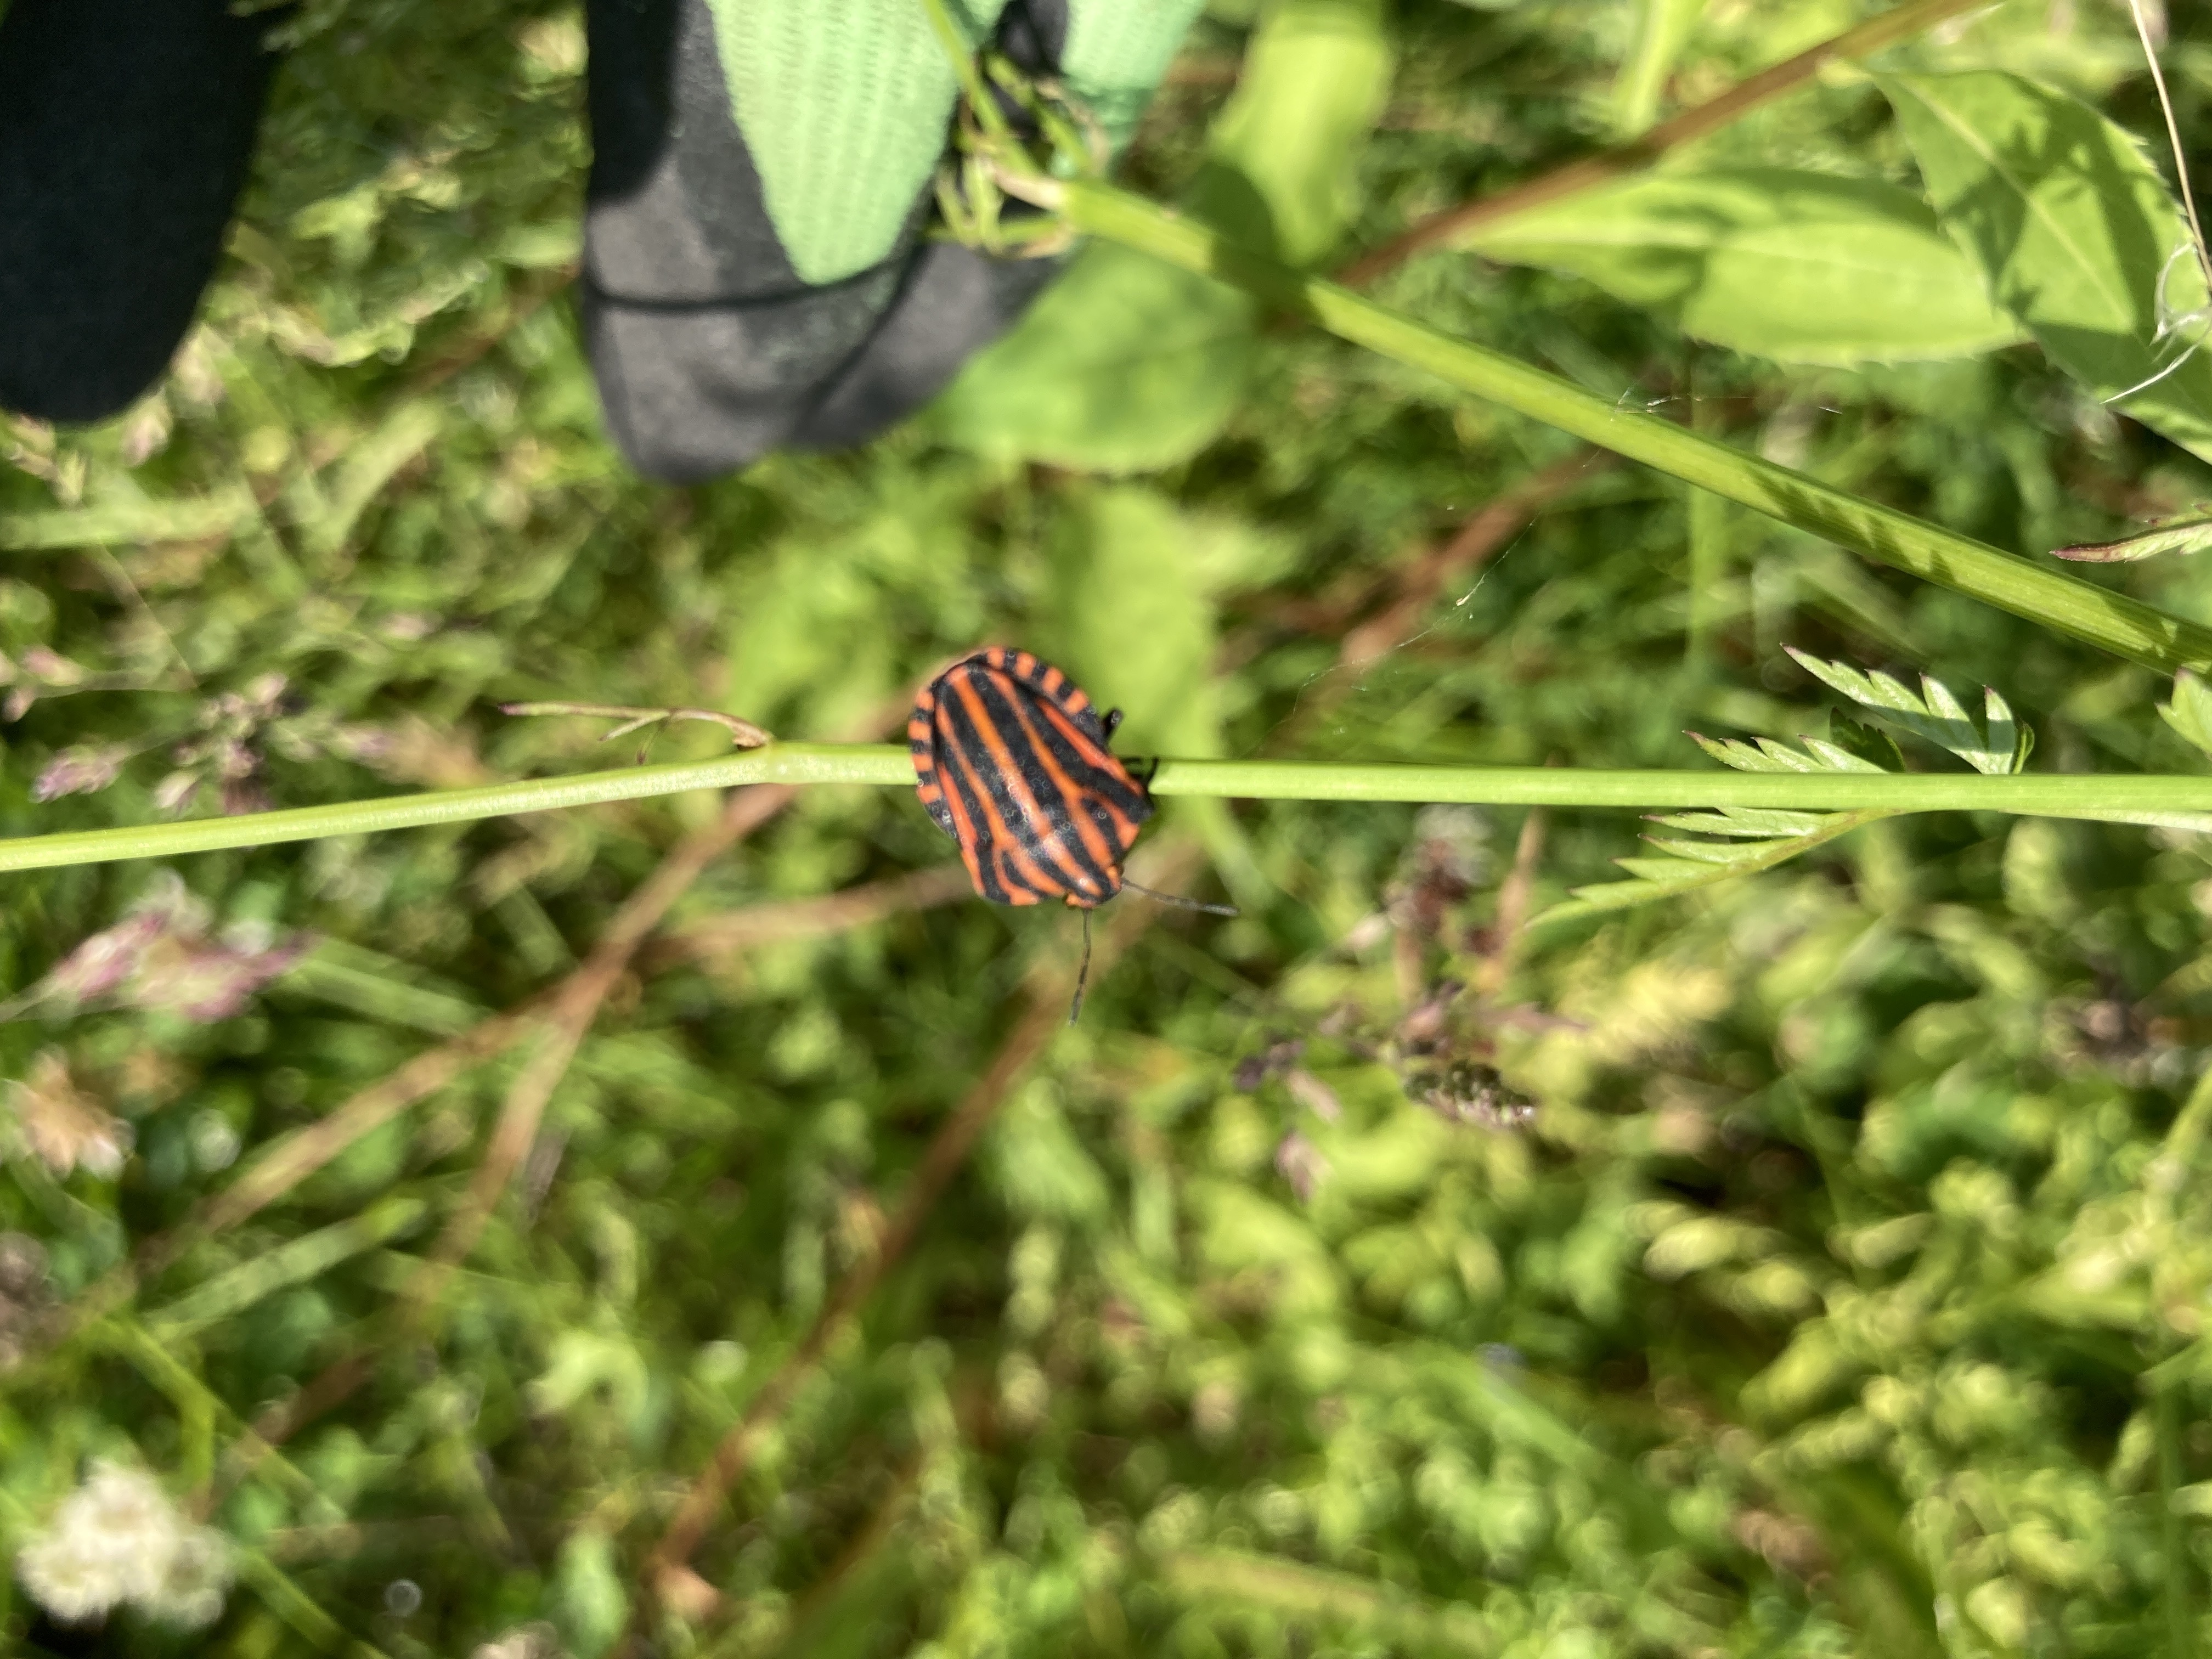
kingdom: Animalia
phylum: Arthropoda
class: Insecta
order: Hemiptera
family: Pentatomidae
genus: Graphosoma
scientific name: Graphosoma italicum
